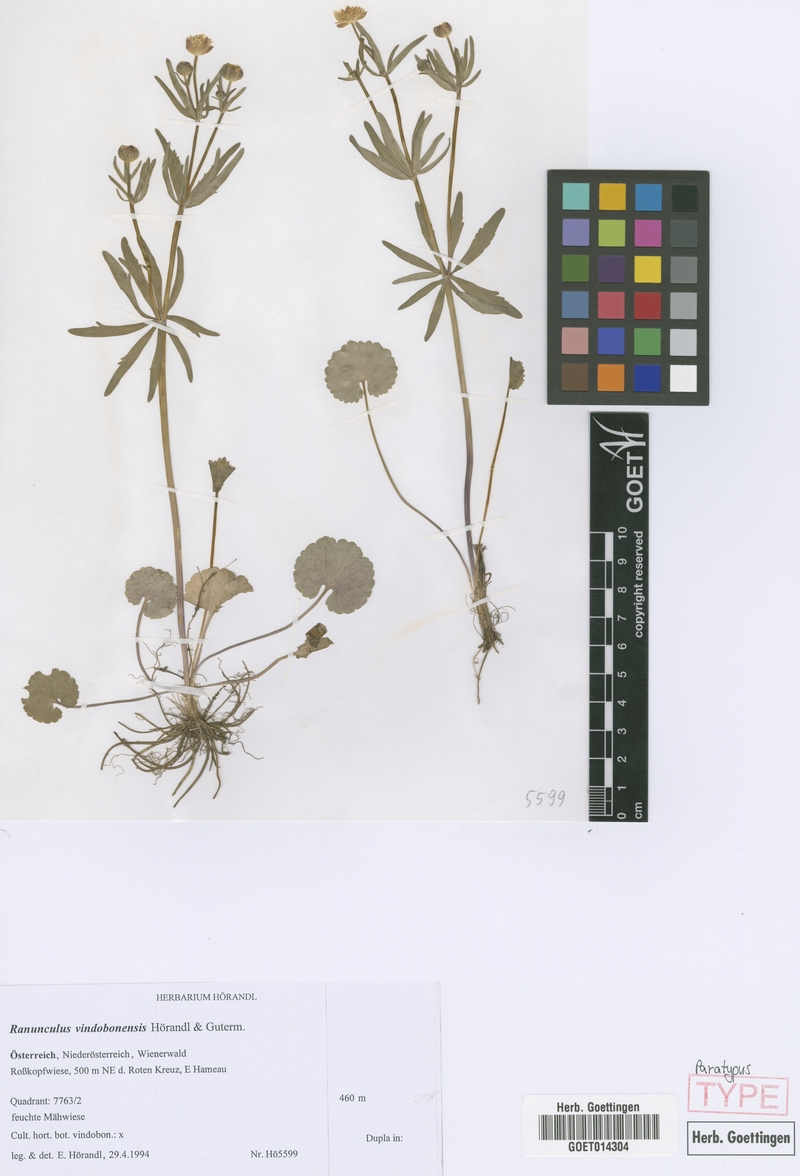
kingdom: Plantae
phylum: Tracheophyta
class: Magnoliopsida
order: Ranunculales
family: Ranunculaceae
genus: Ranunculus
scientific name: Ranunculus vindobonensis
